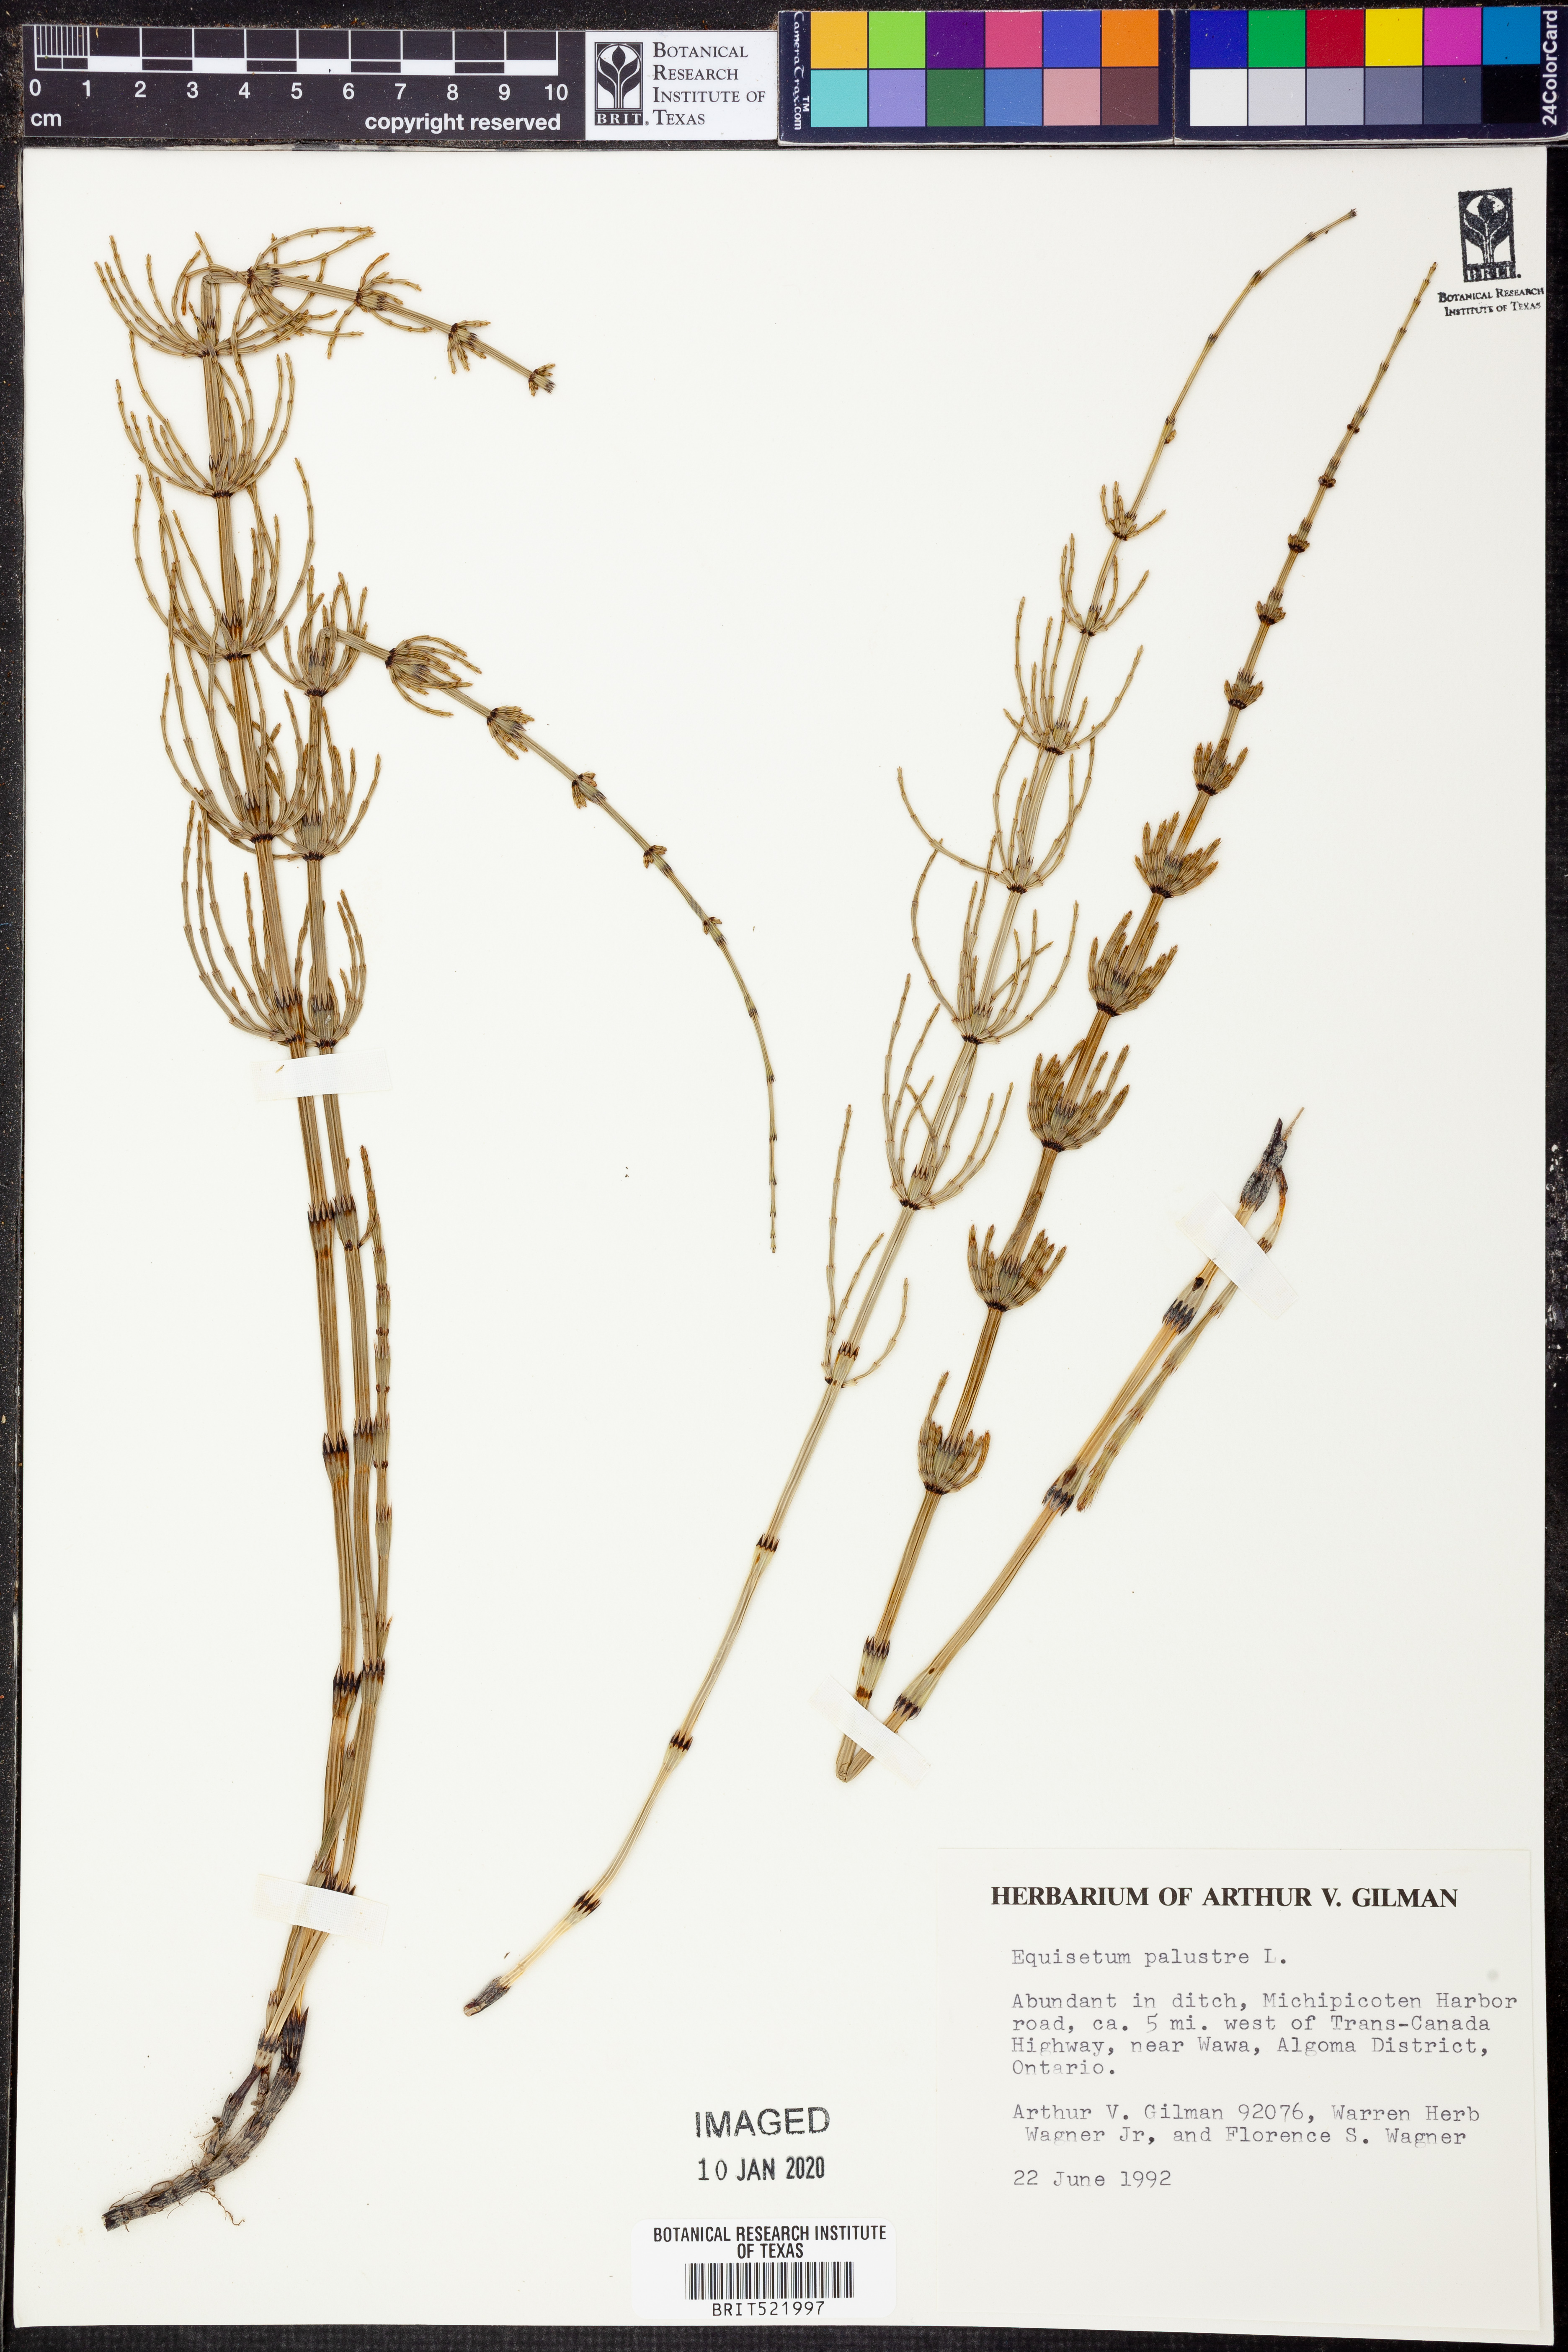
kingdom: Plantae
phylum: Tracheophyta
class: Polypodiopsida
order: Equisetales
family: Equisetaceae
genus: Equisetum
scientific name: Equisetum palustre
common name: Marsh horsetail
